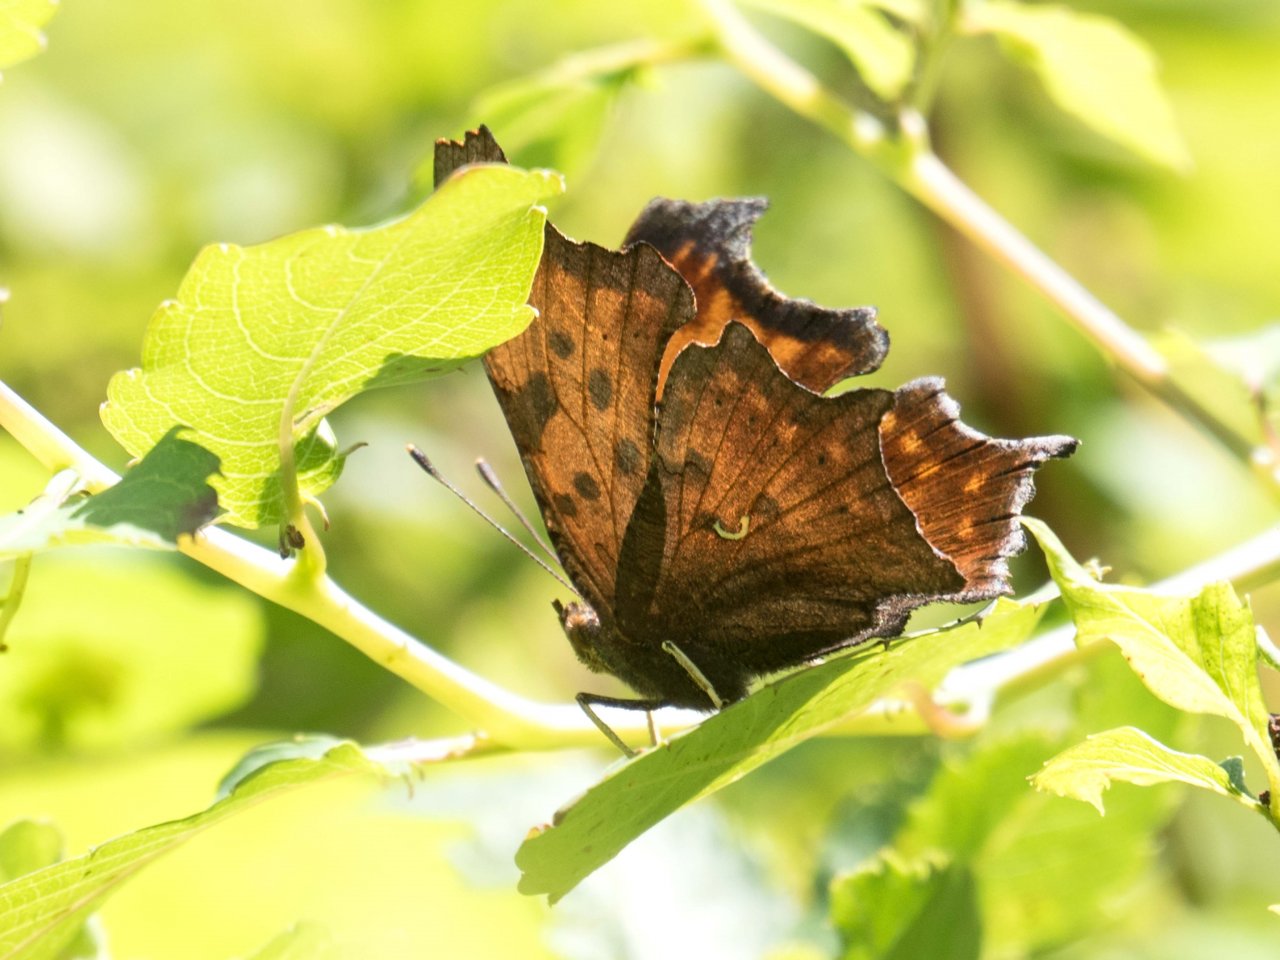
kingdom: Animalia
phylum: Arthropoda
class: Insecta
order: Lepidoptera
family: Nymphalidae
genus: Polygonia
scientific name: Polygonia comma
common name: Eastern Comma
